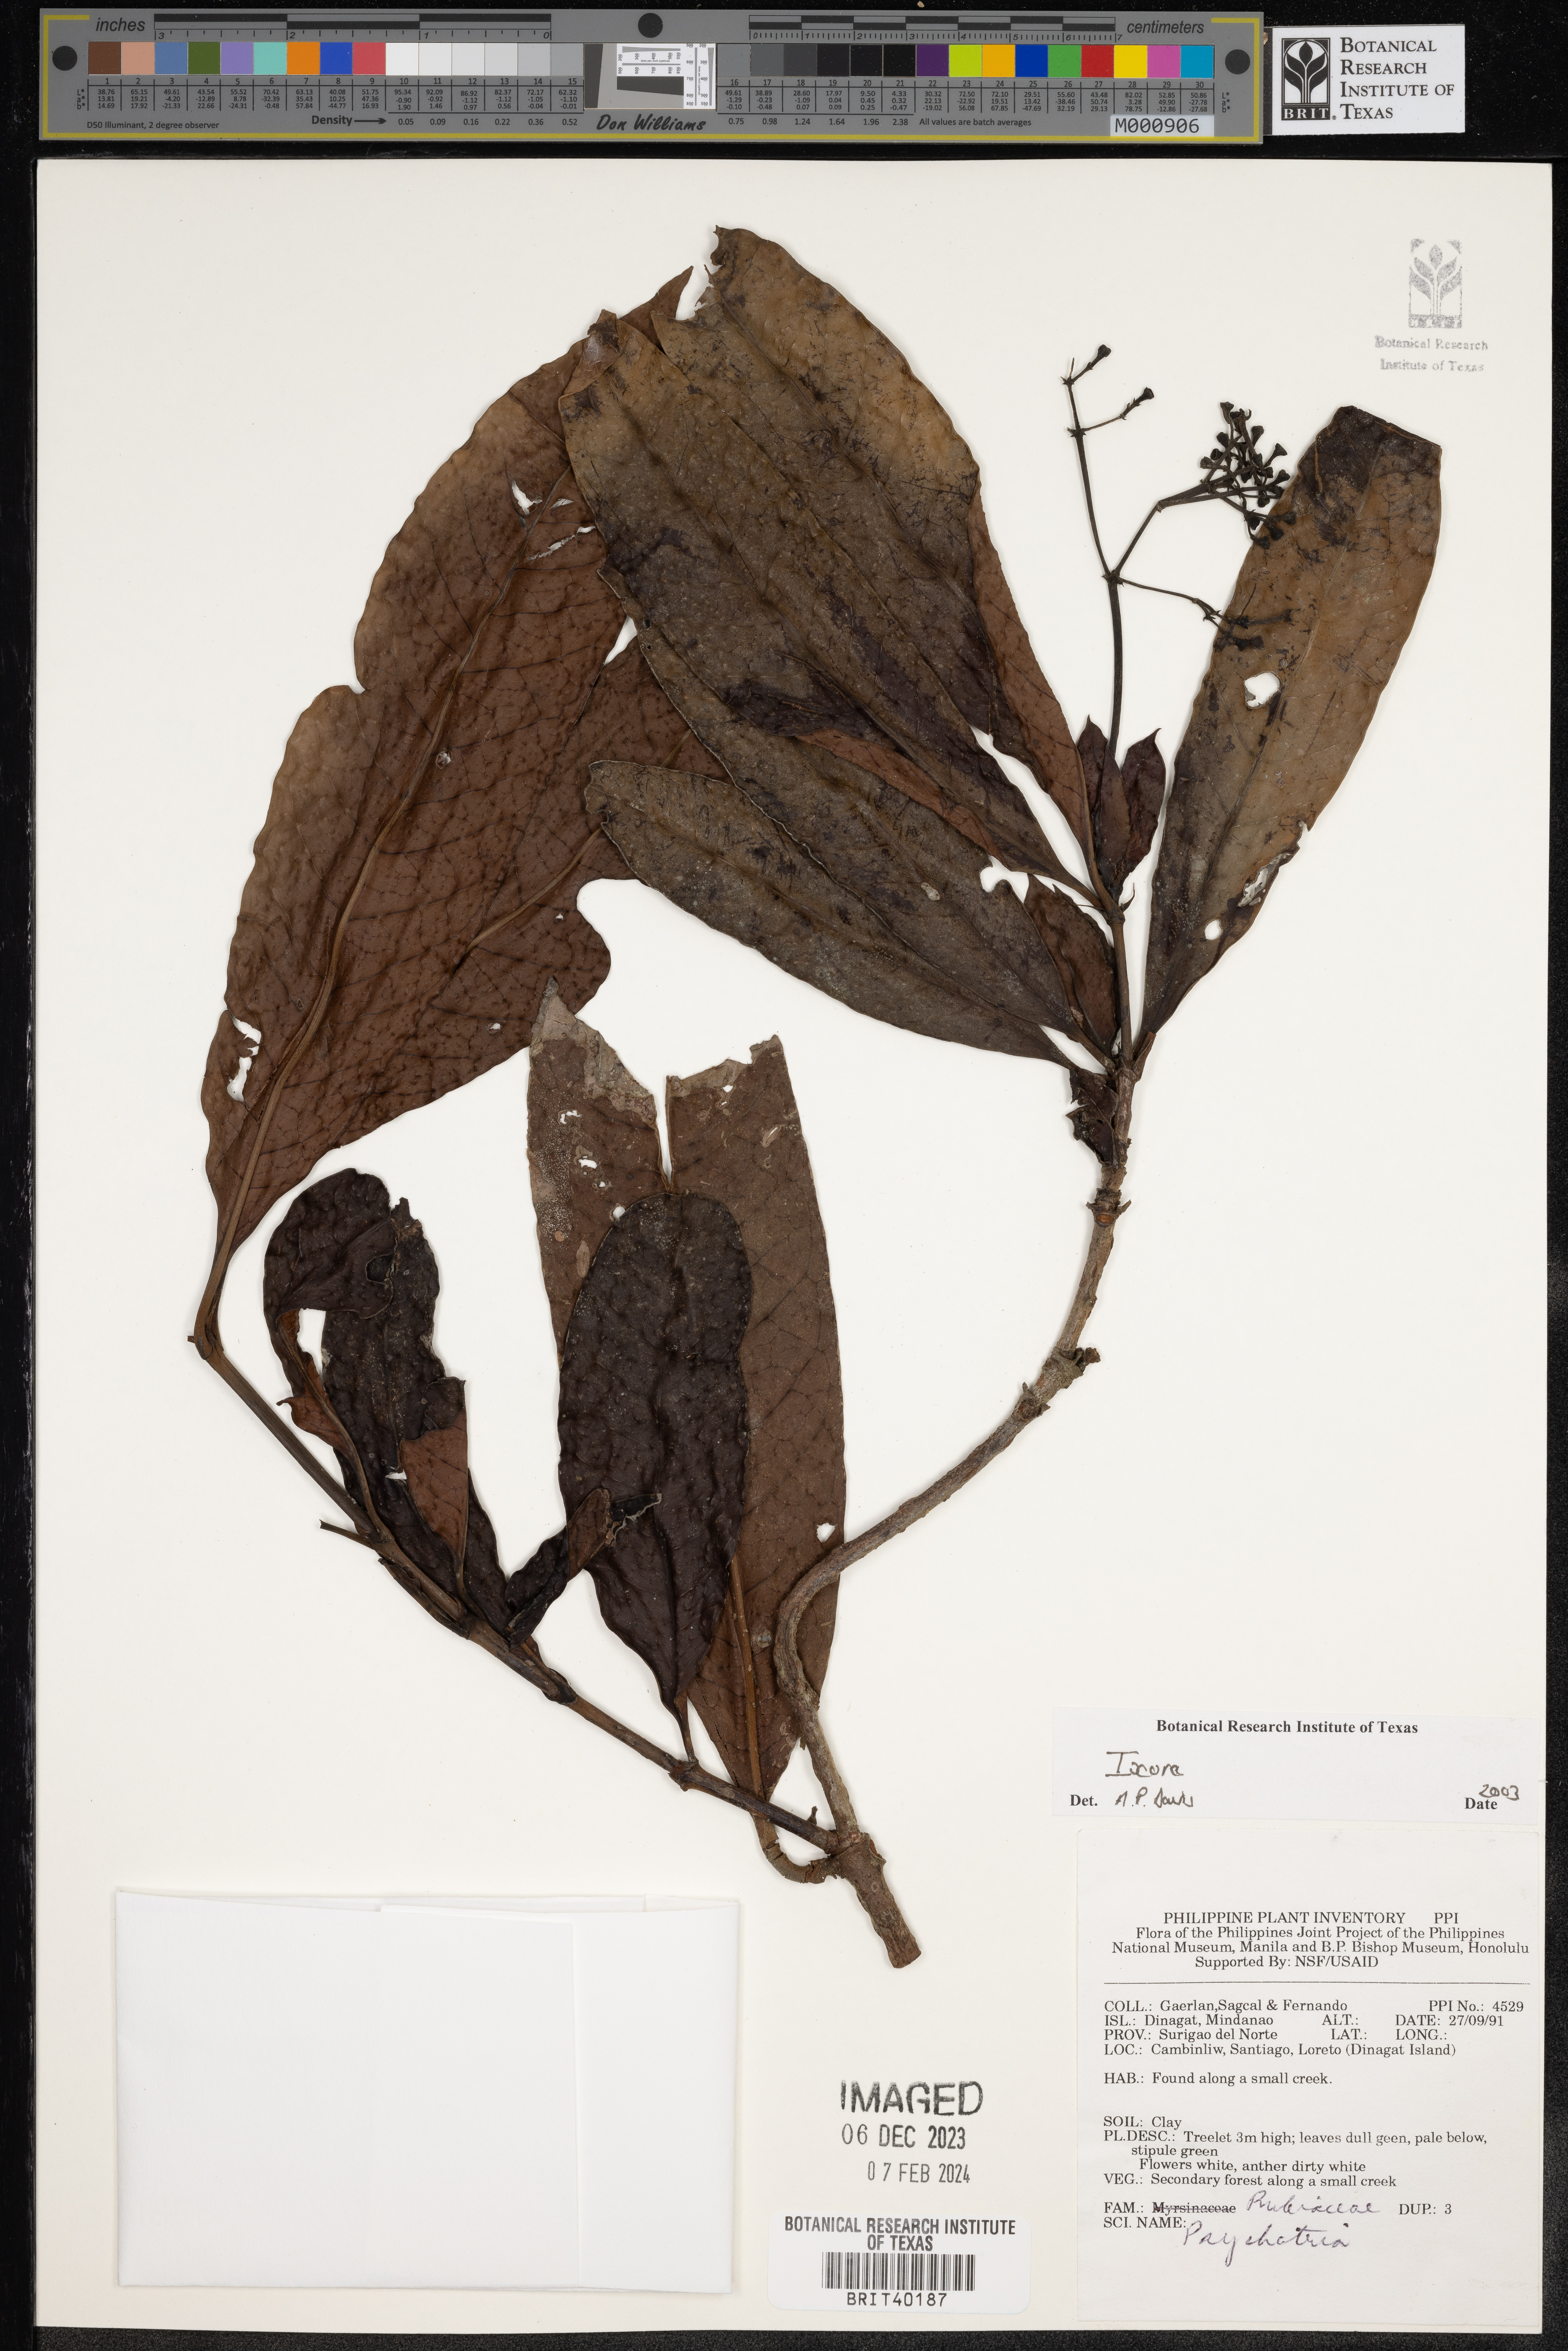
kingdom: Plantae
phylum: Tracheophyta
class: Magnoliopsida
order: Gentianales
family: Rubiaceae
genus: Ixora
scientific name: Ixora
